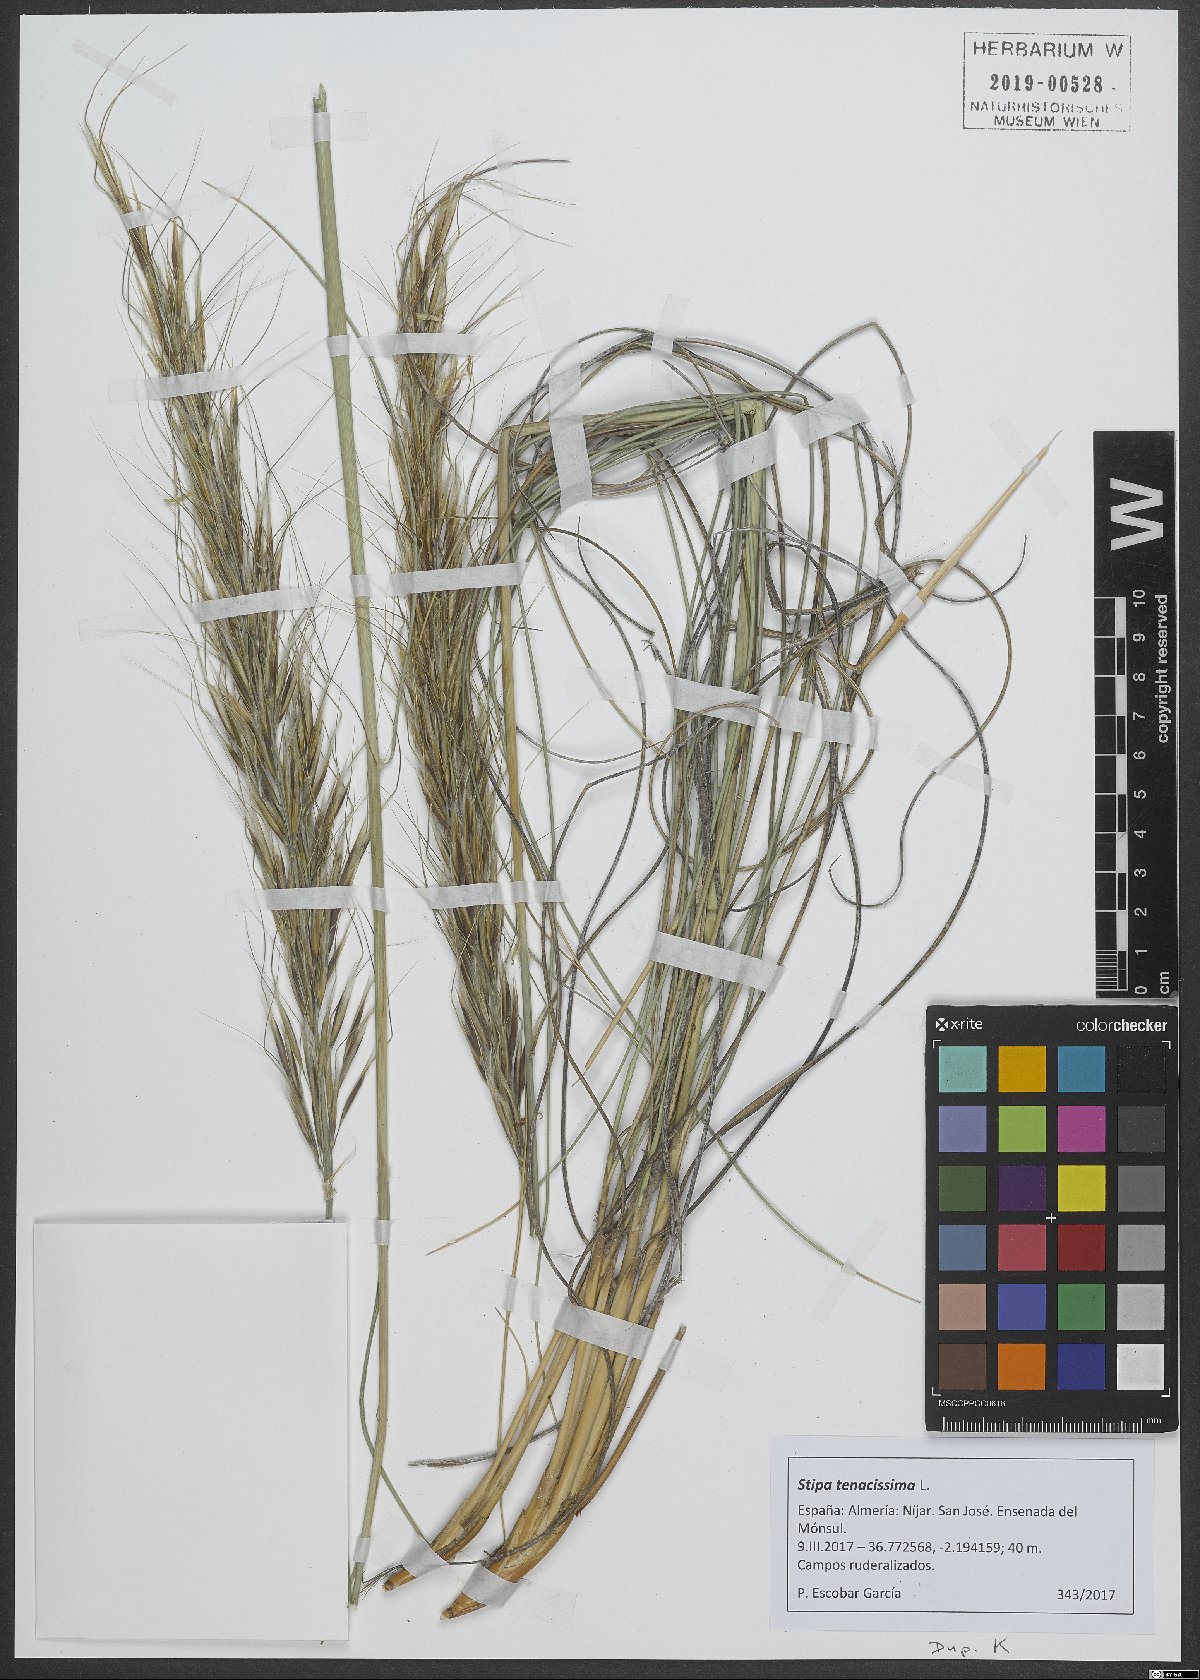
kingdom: Plantae
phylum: Tracheophyta
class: Liliopsida
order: Poales
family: Poaceae
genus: Macrochloa
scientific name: Macrochloa tenacissima
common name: Alfa grass
